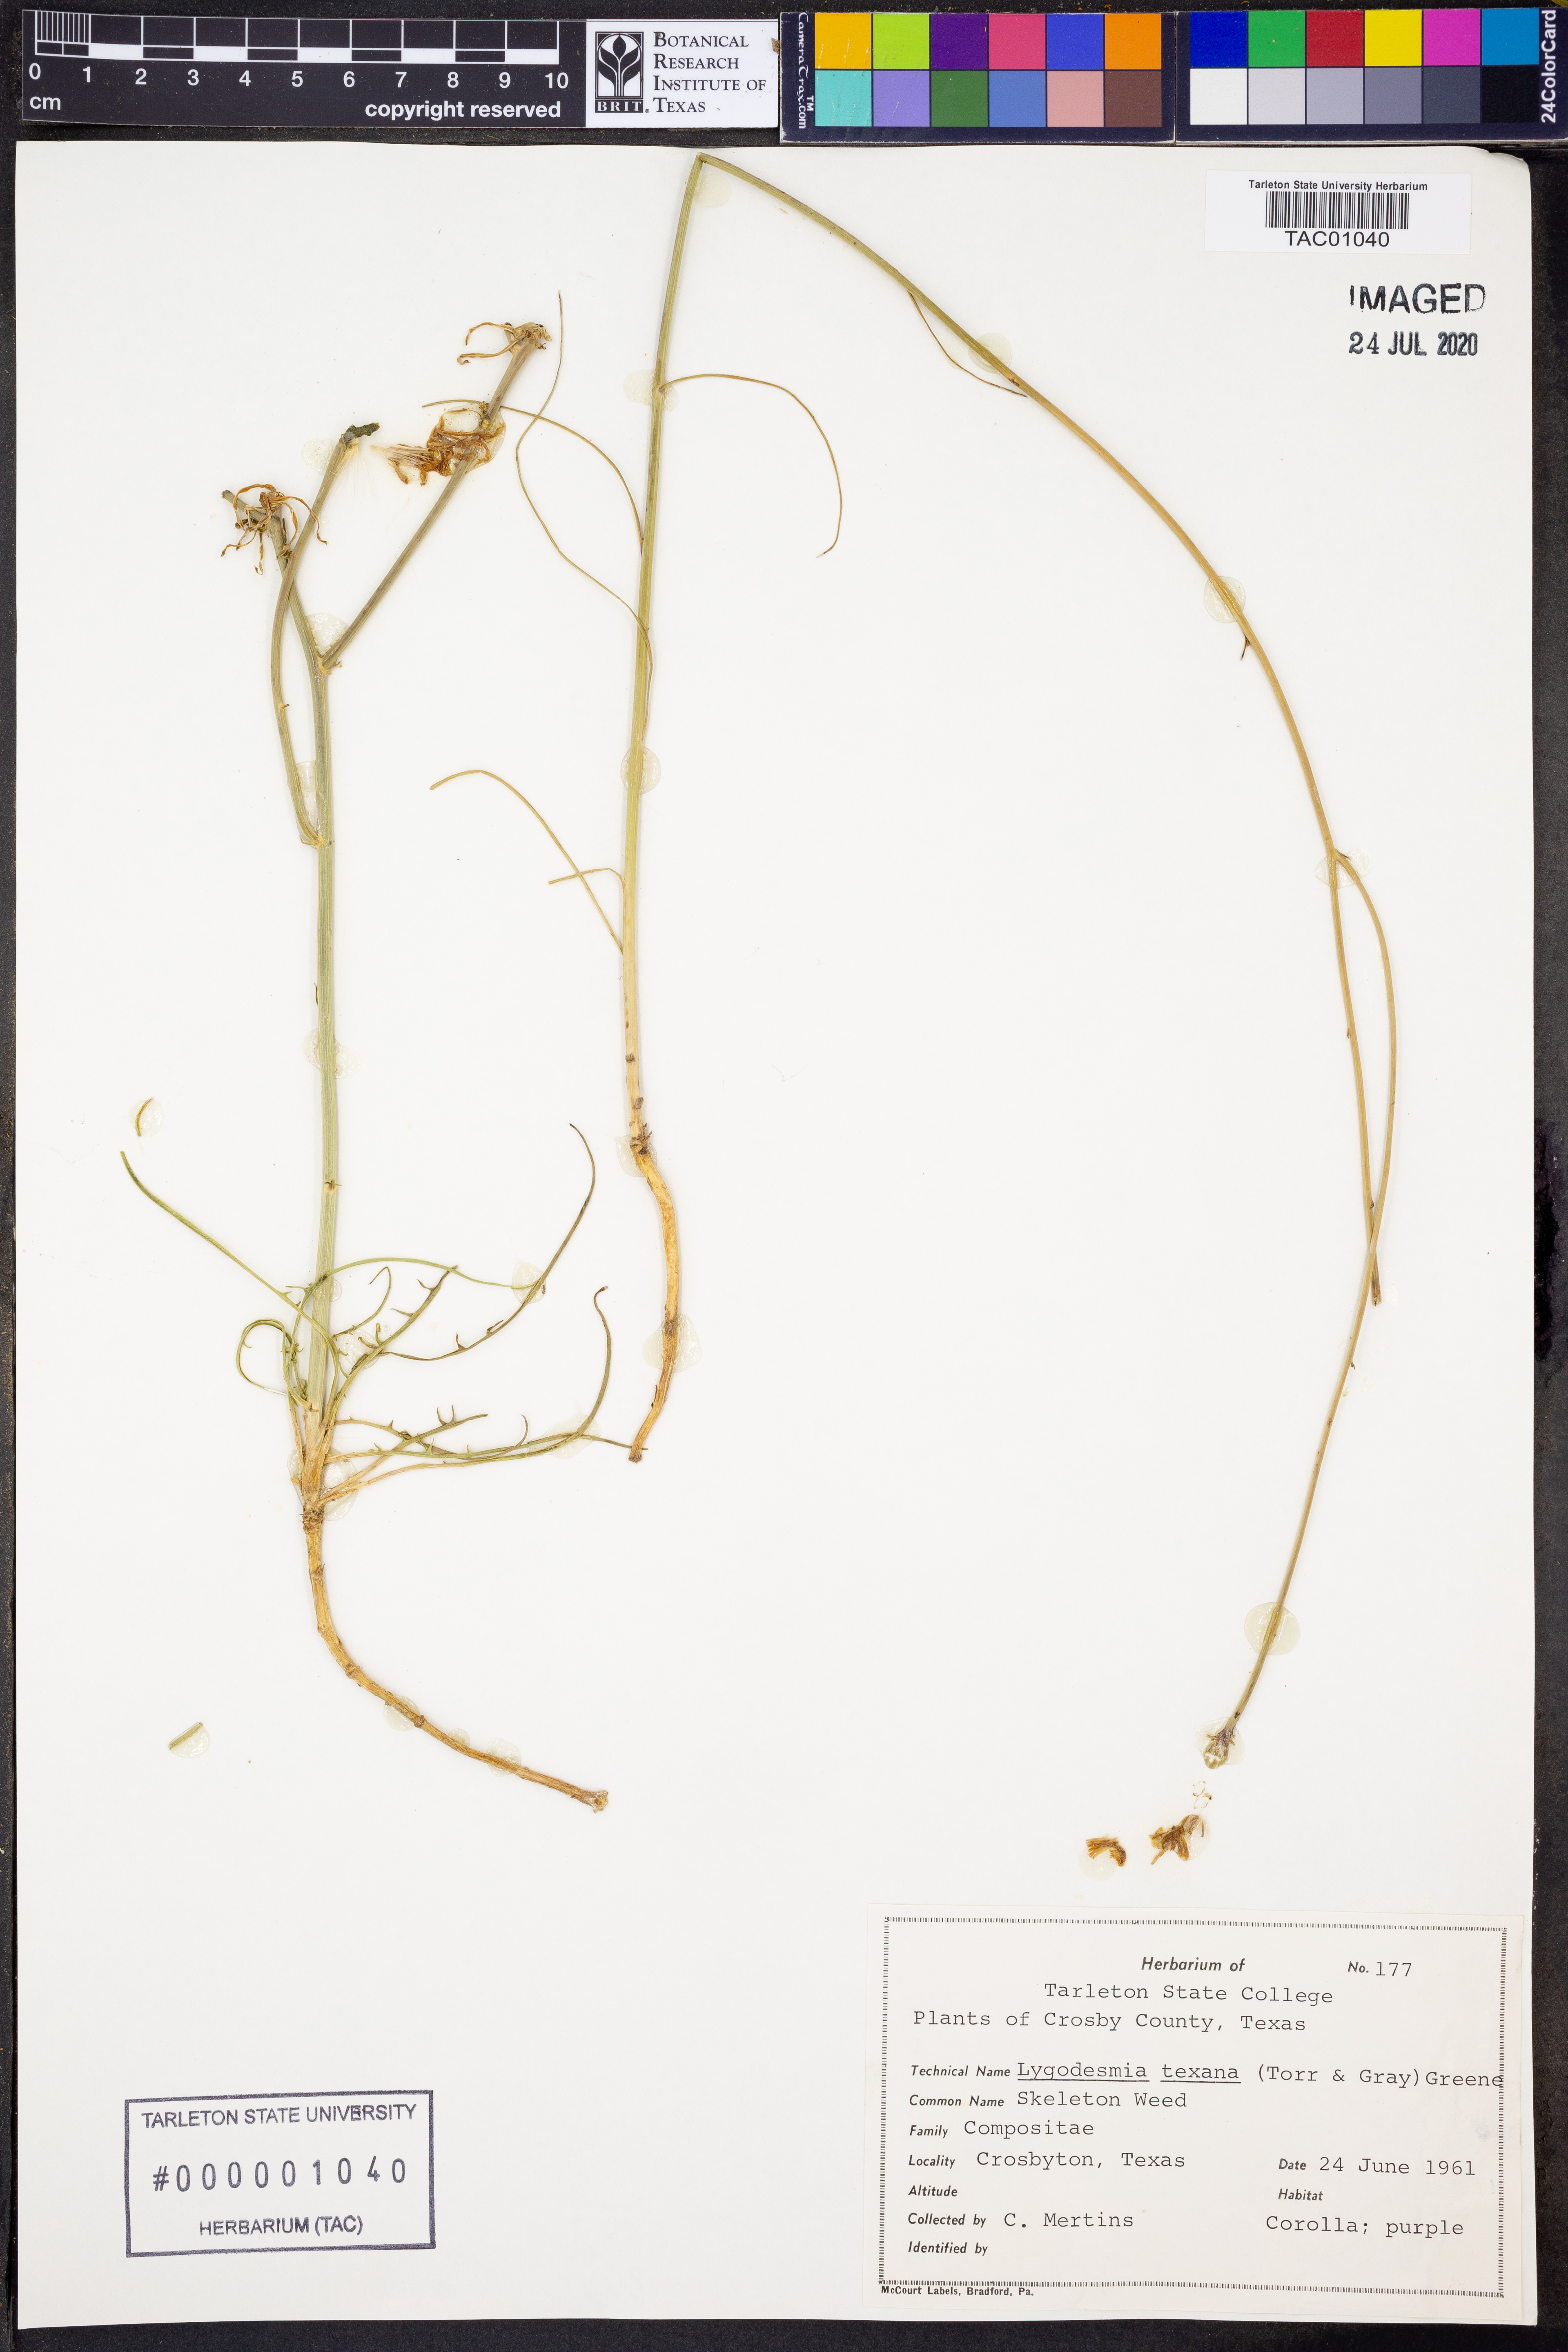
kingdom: Plantae
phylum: Tracheophyta
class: Magnoliopsida
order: Asterales
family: Asteraceae
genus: Lygodesmia
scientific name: Lygodesmia texana
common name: Texas skeleton-plant
